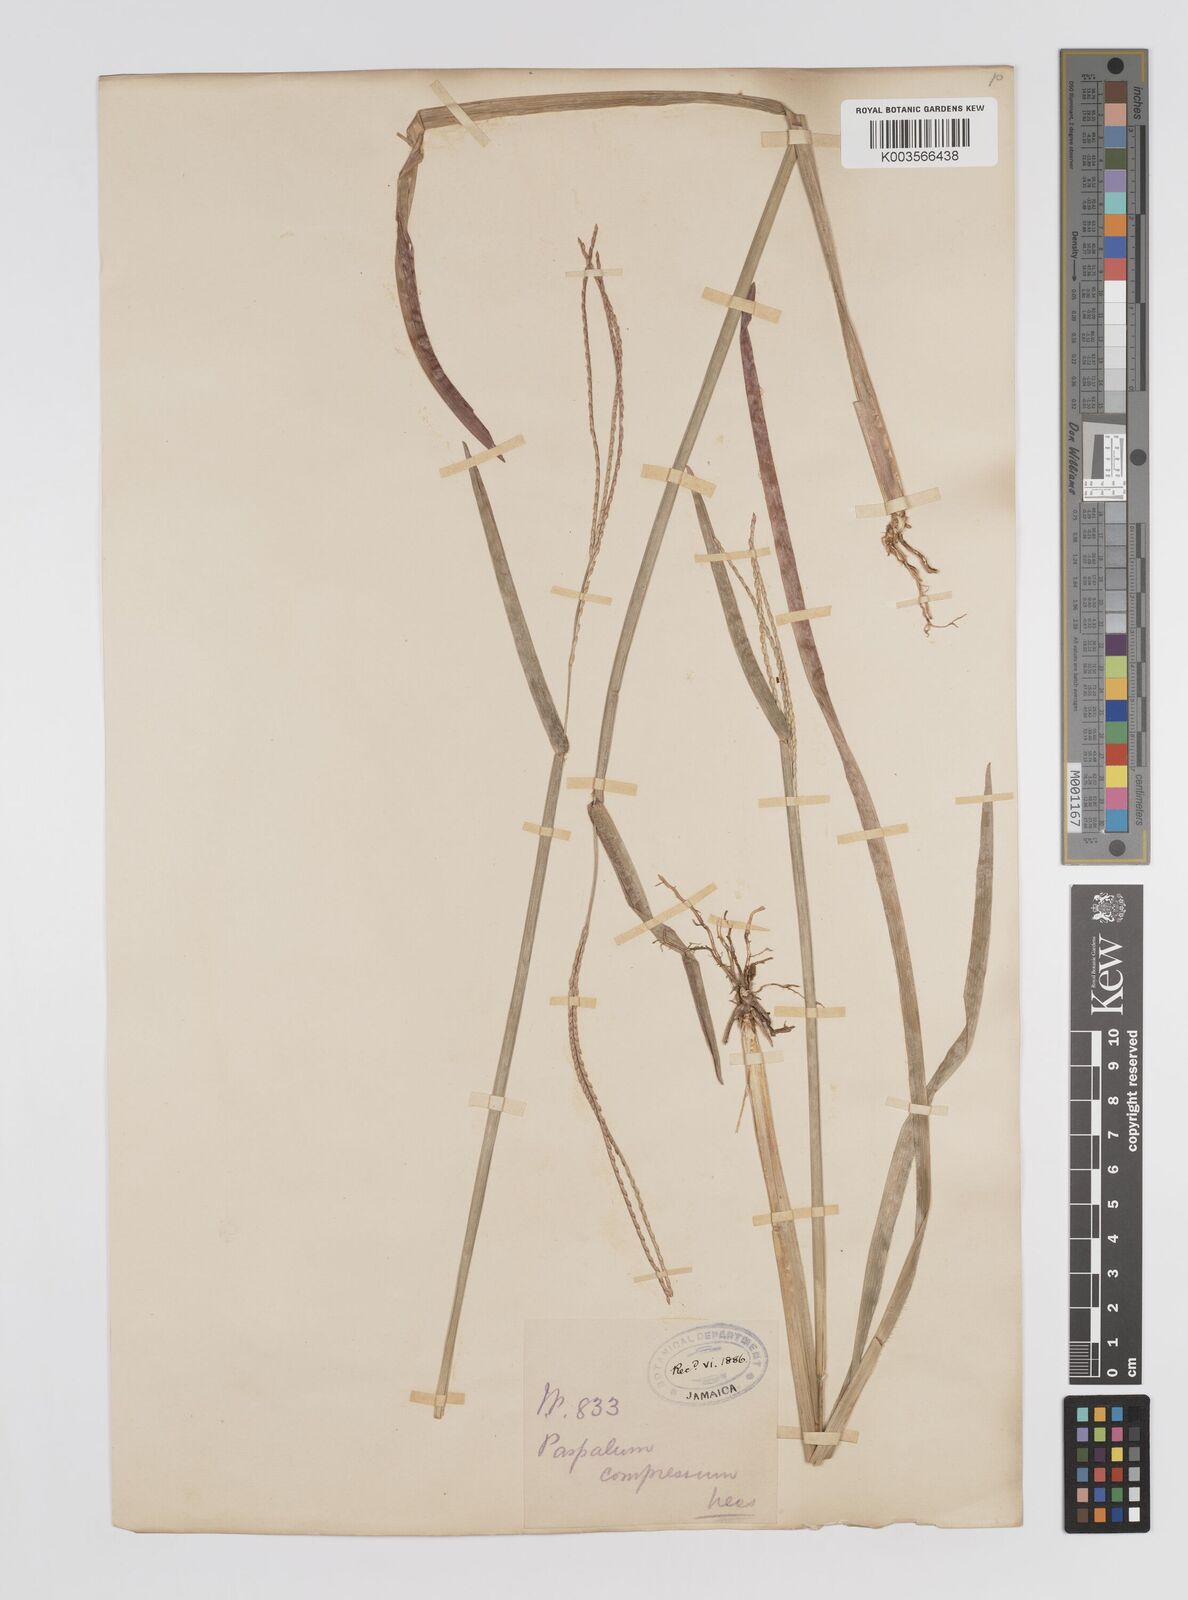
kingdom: Plantae
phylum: Tracheophyta
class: Liliopsida
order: Poales
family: Poaceae
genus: Axonopus
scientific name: Axonopus compressus
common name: American carpet grass
